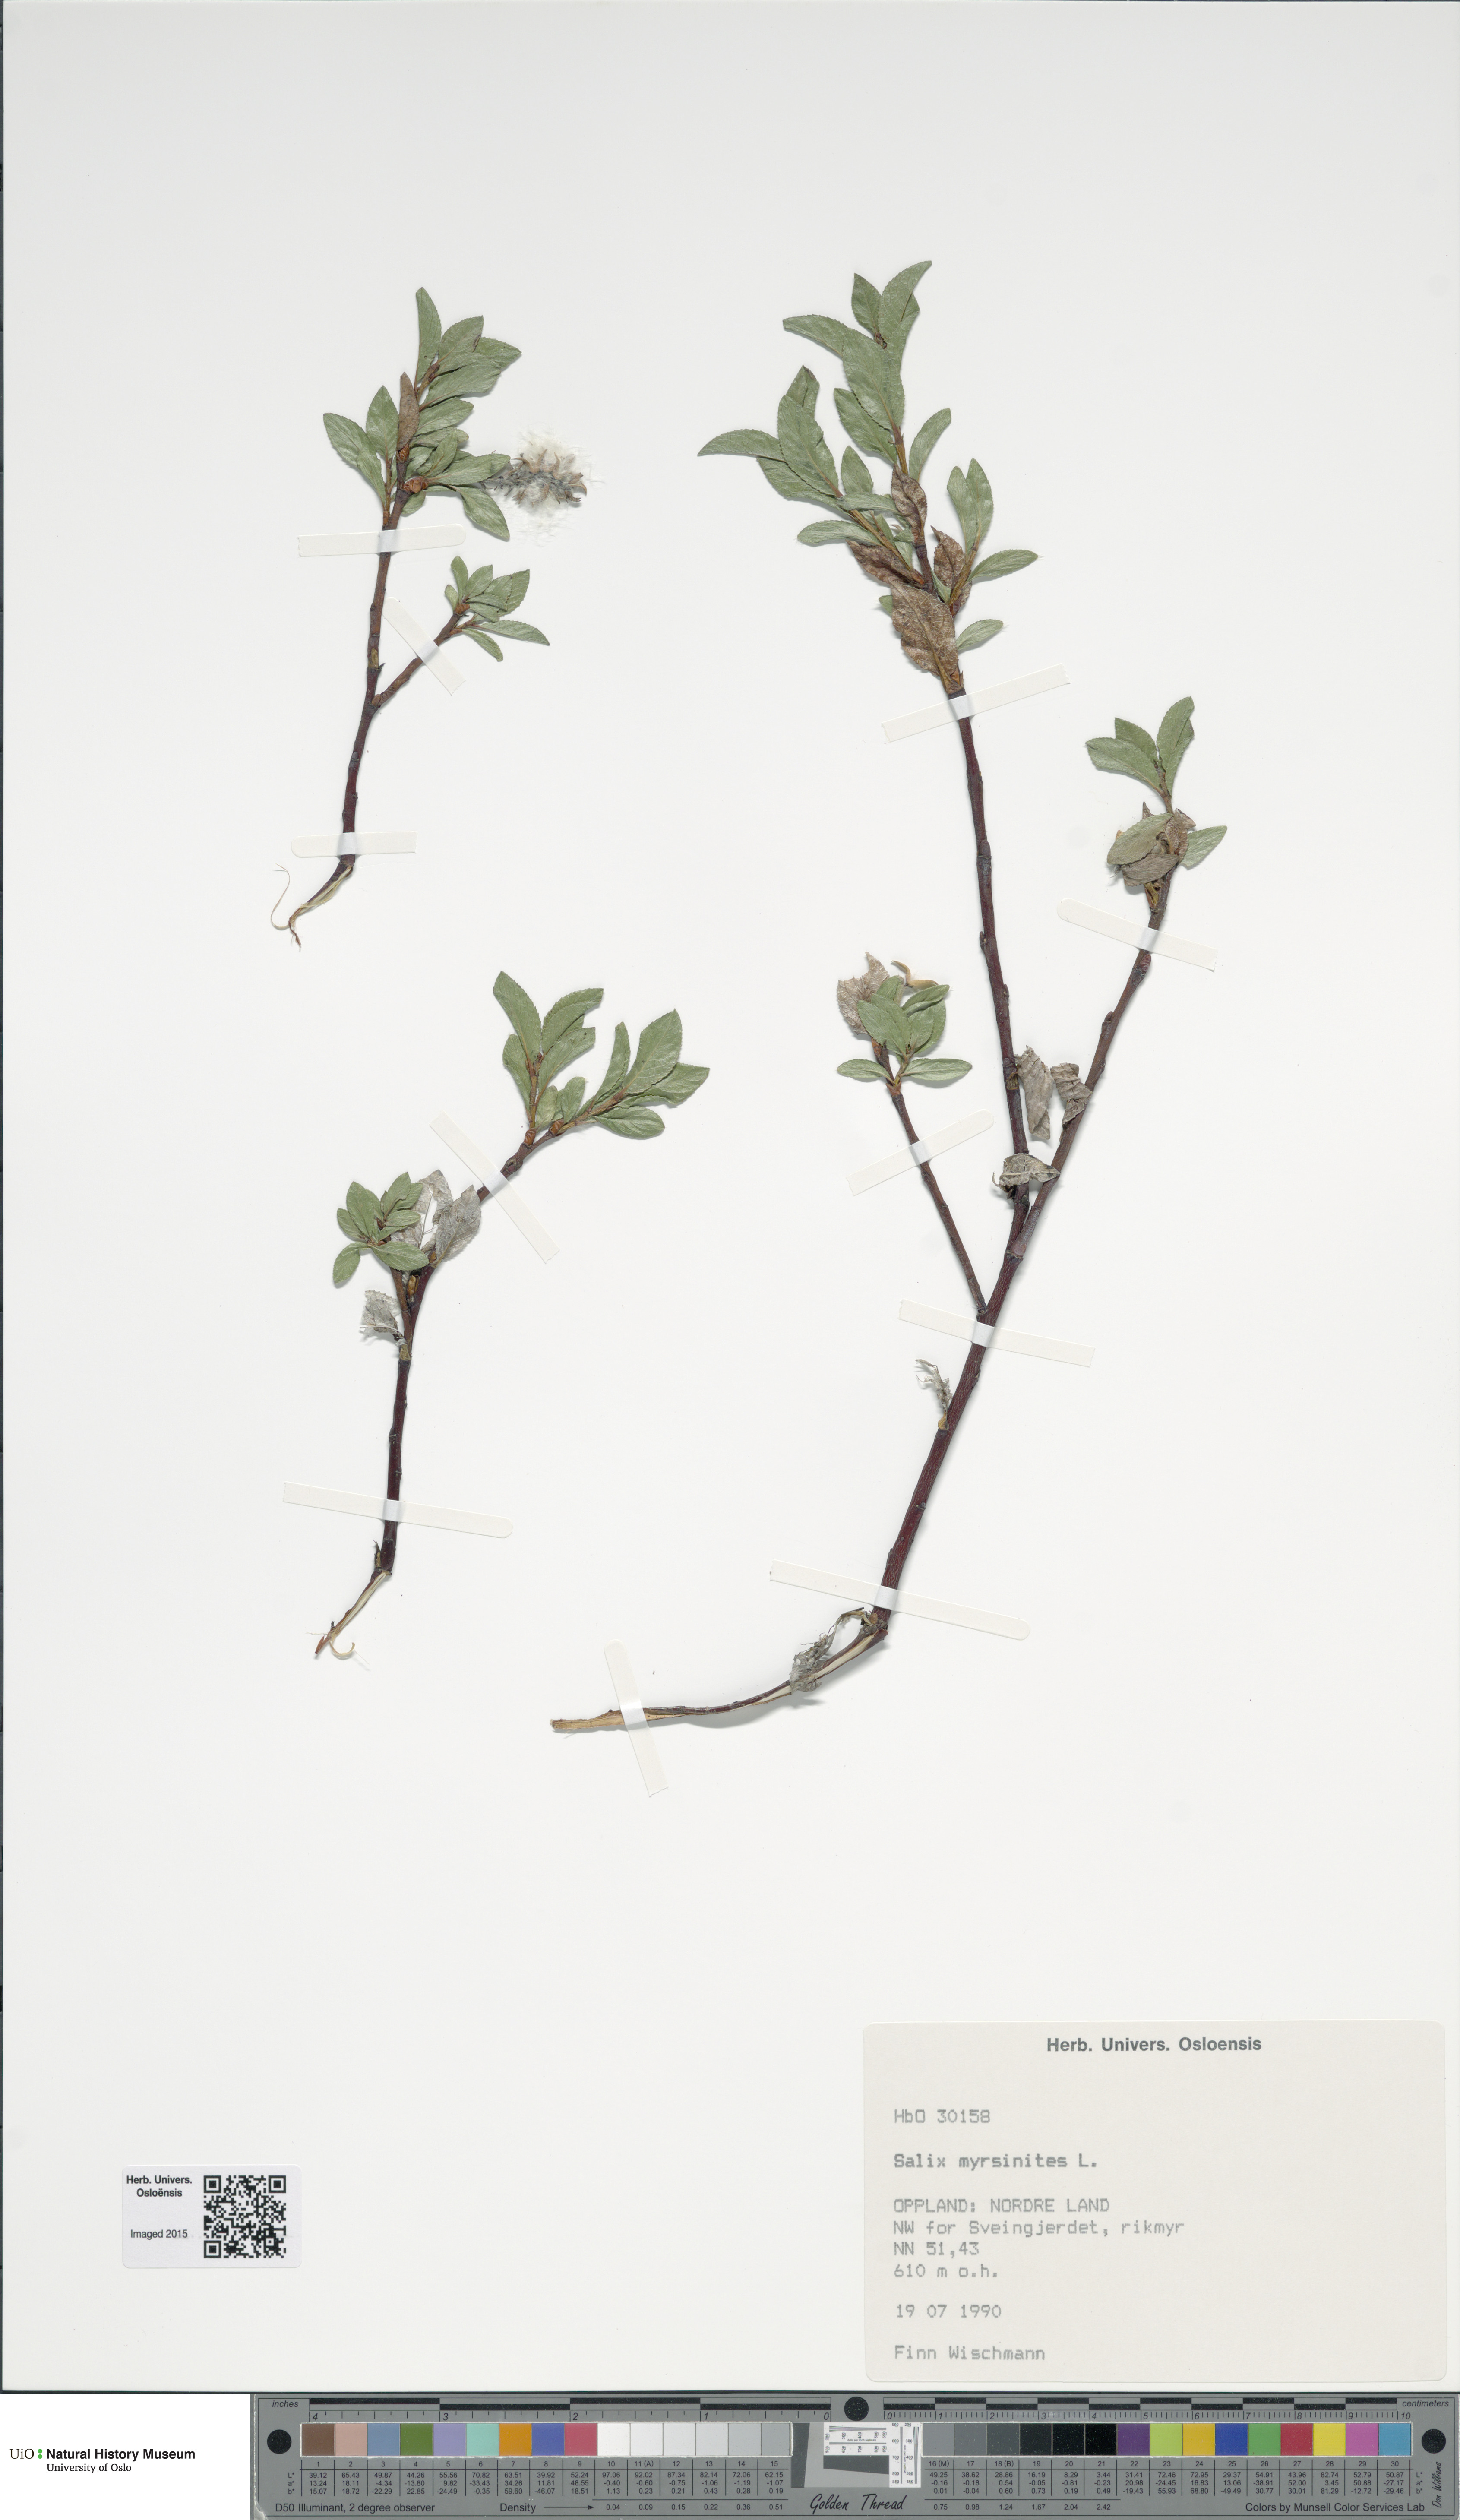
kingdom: Plantae
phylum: Tracheophyta
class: Magnoliopsida
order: Malpighiales
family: Salicaceae
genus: Salix
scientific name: Salix myrsinites
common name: Myrtle willow
